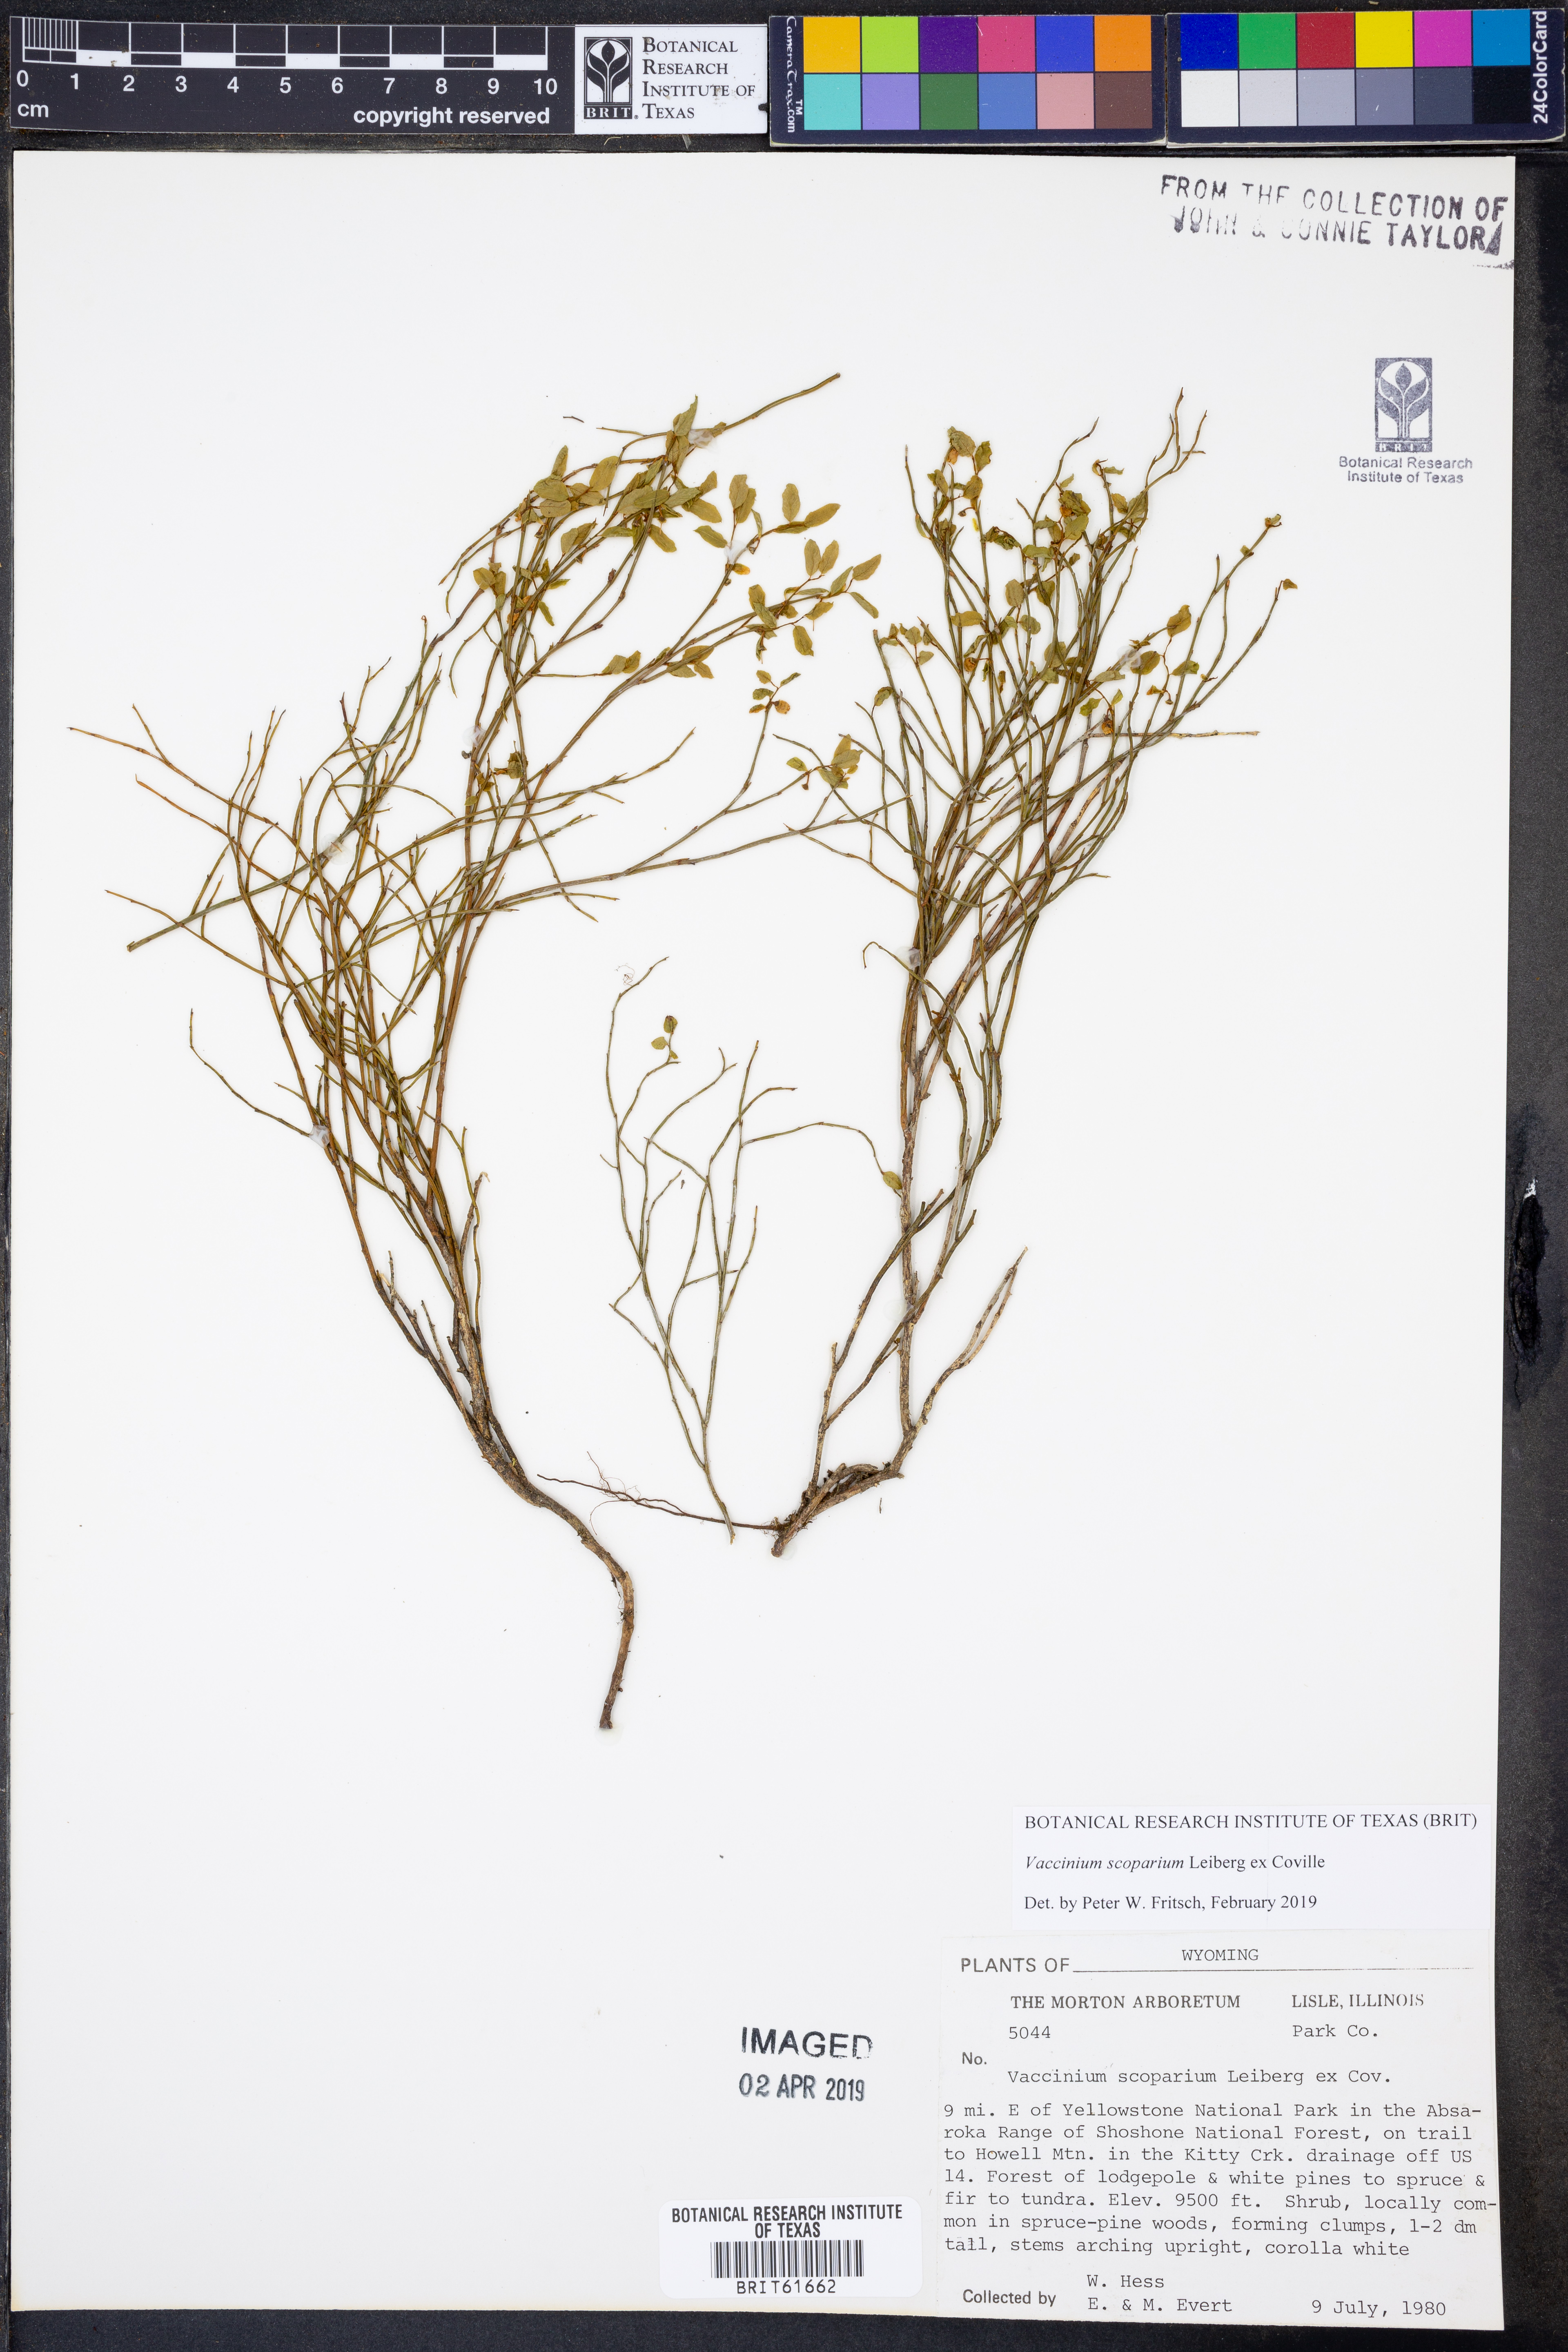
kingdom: Plantae
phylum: Tracheophyta
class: Magnoliopsida
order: Ericales
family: Ericaceae
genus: Vaccinium
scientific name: Vaccinium scoparium
